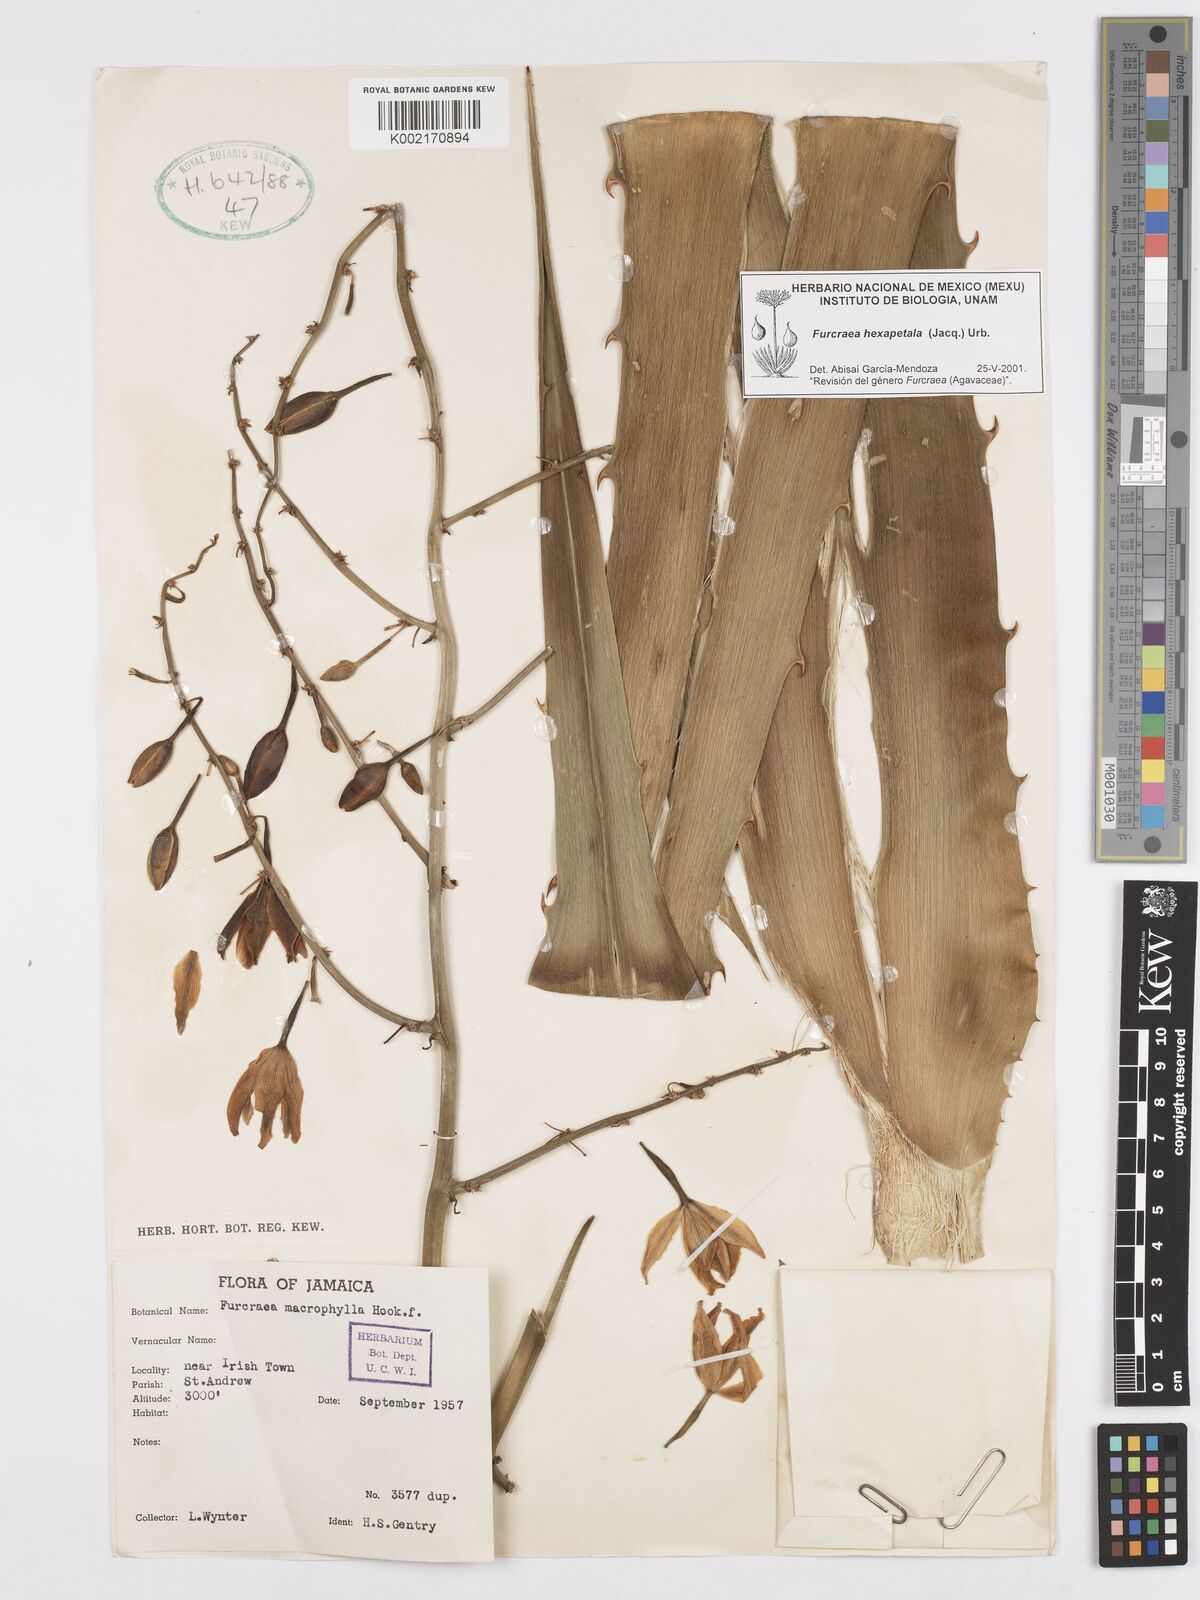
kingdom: Plantae
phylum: Tracheophyta
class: Liliopsida
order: Asparagales
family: Asparagaceae
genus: Furcraea
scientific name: Furcraea hexapetala
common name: Cuban-hemp
